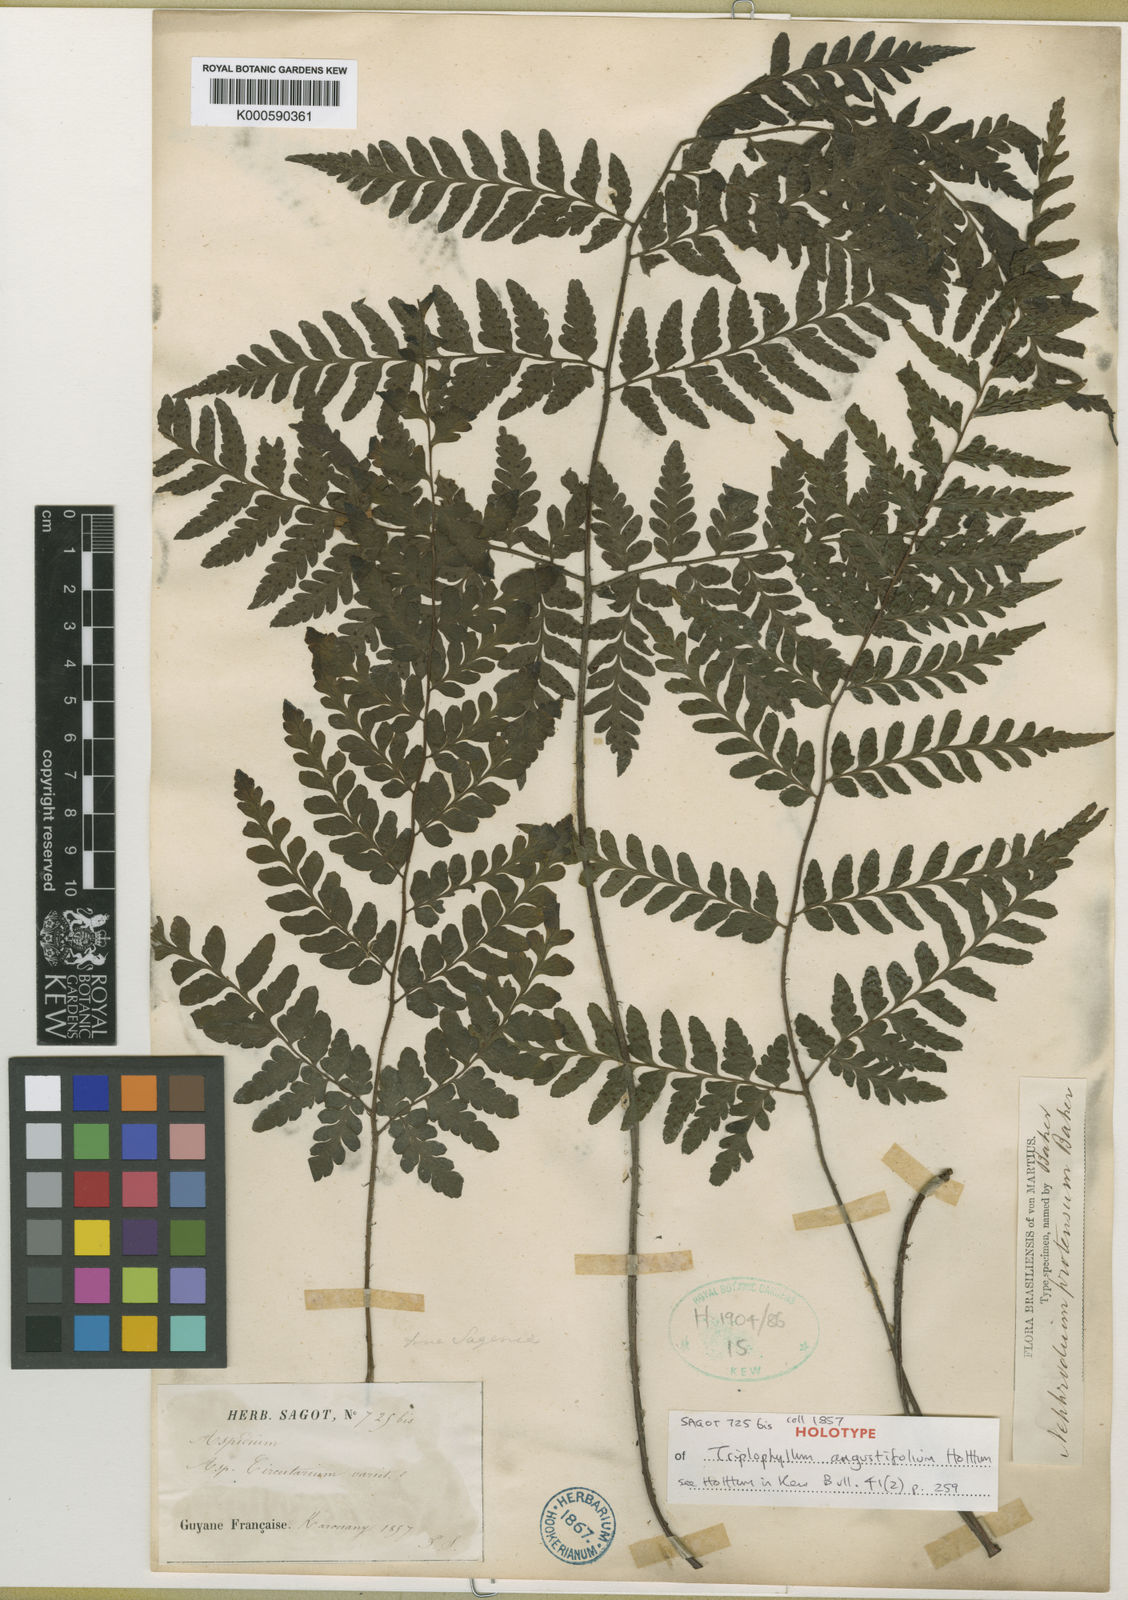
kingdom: Plantae
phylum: Tracheophyta
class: Polypodiopsida
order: Polypodiales
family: Tectariaceae
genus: Triplophyllum
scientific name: Triplophyllum angustifolium
